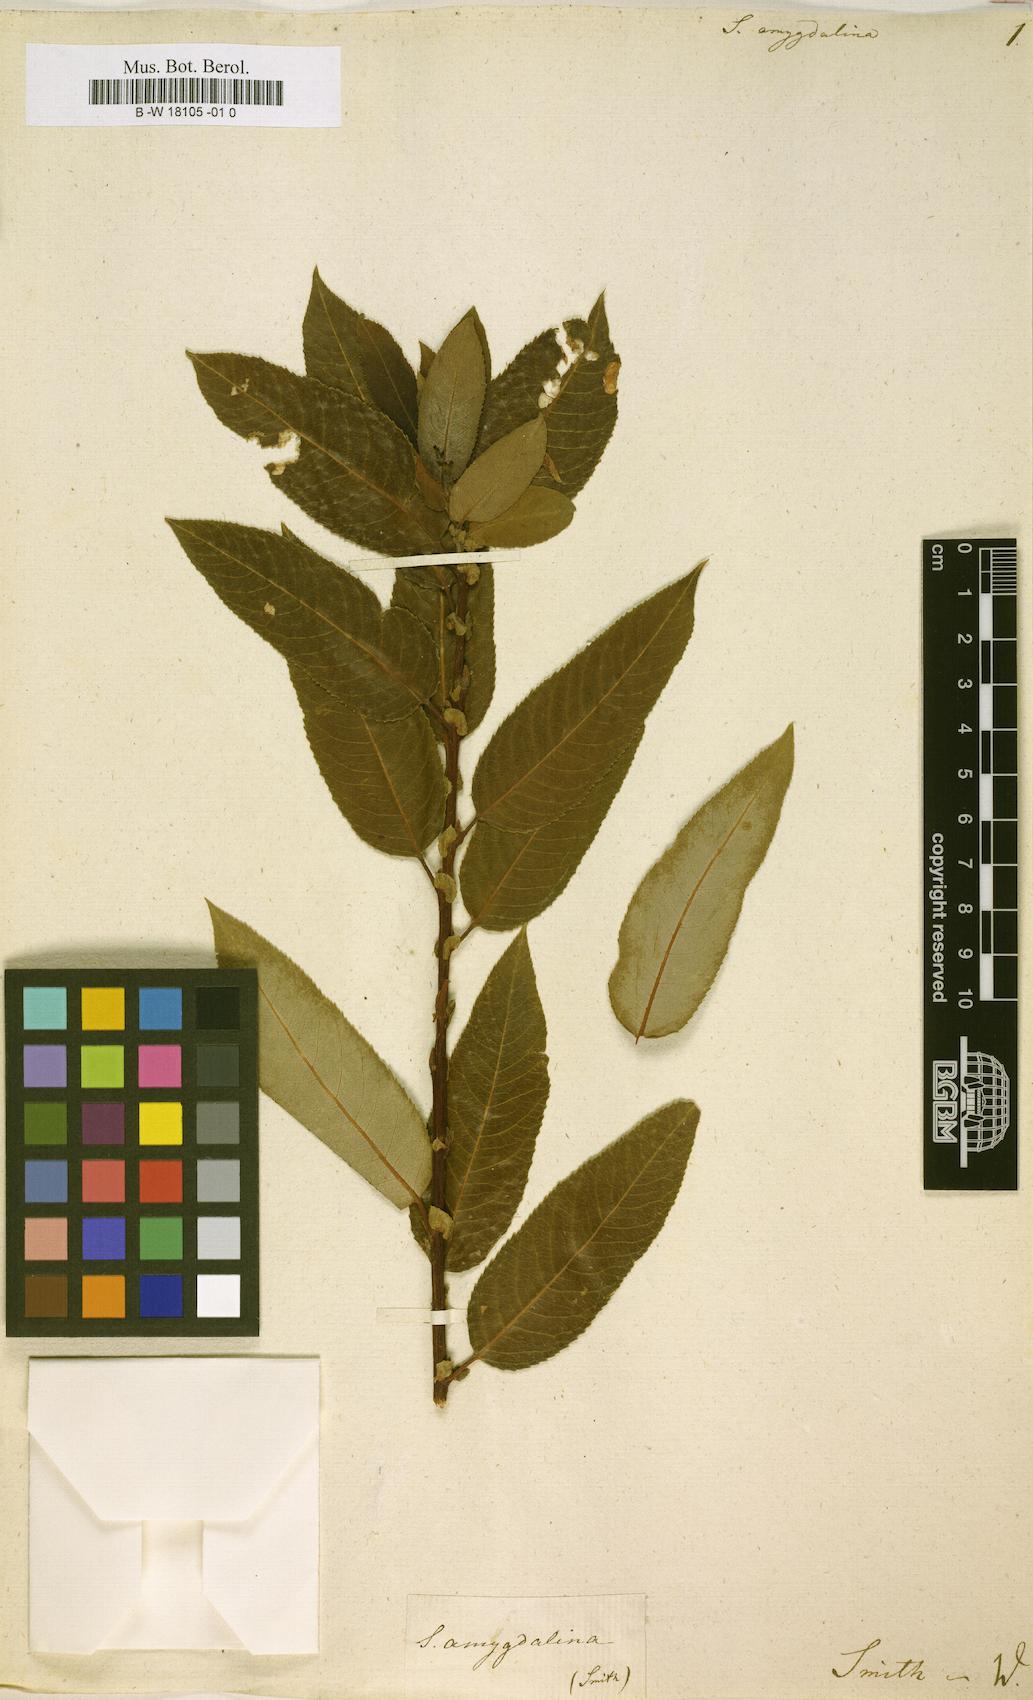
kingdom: Plantae
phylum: Tracheophyta
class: Magnoliopsida
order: Malpighiales
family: Salicaceae
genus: Salix
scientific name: Salix
